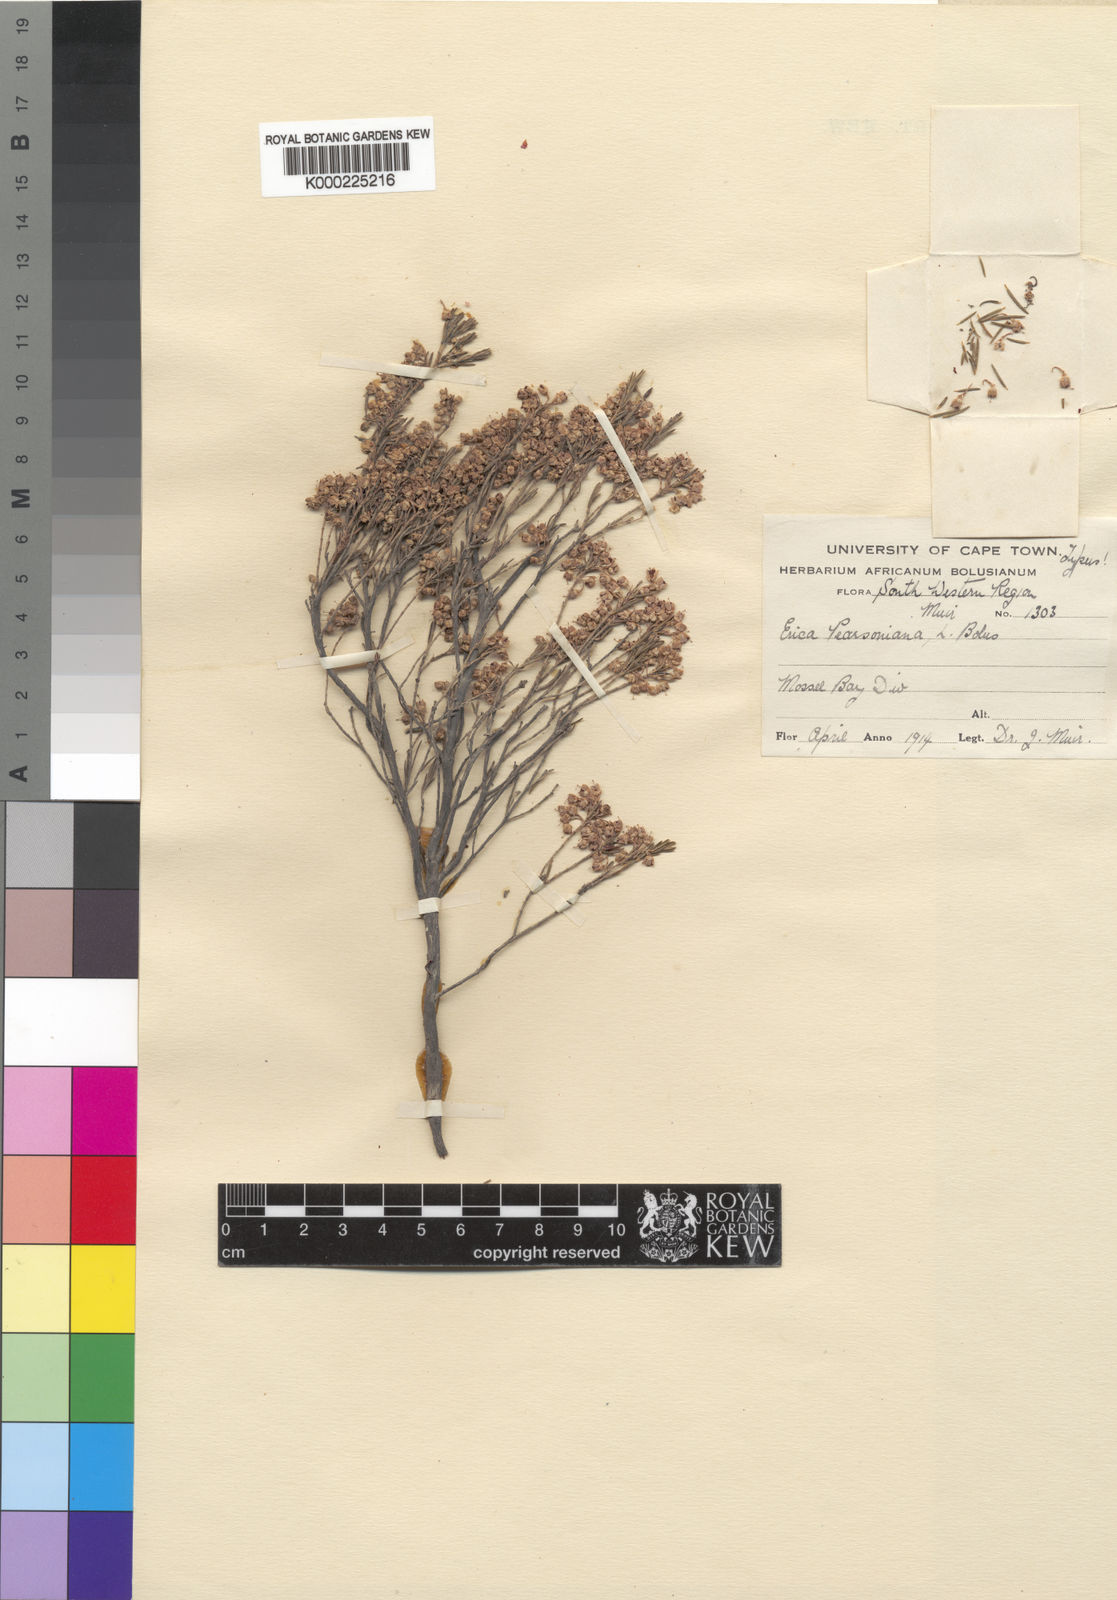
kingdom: Plantae
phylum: Tracheophyta
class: Magnoliopsida
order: Ericales
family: Ericaceae
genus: Erica
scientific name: Erica parviporandra
